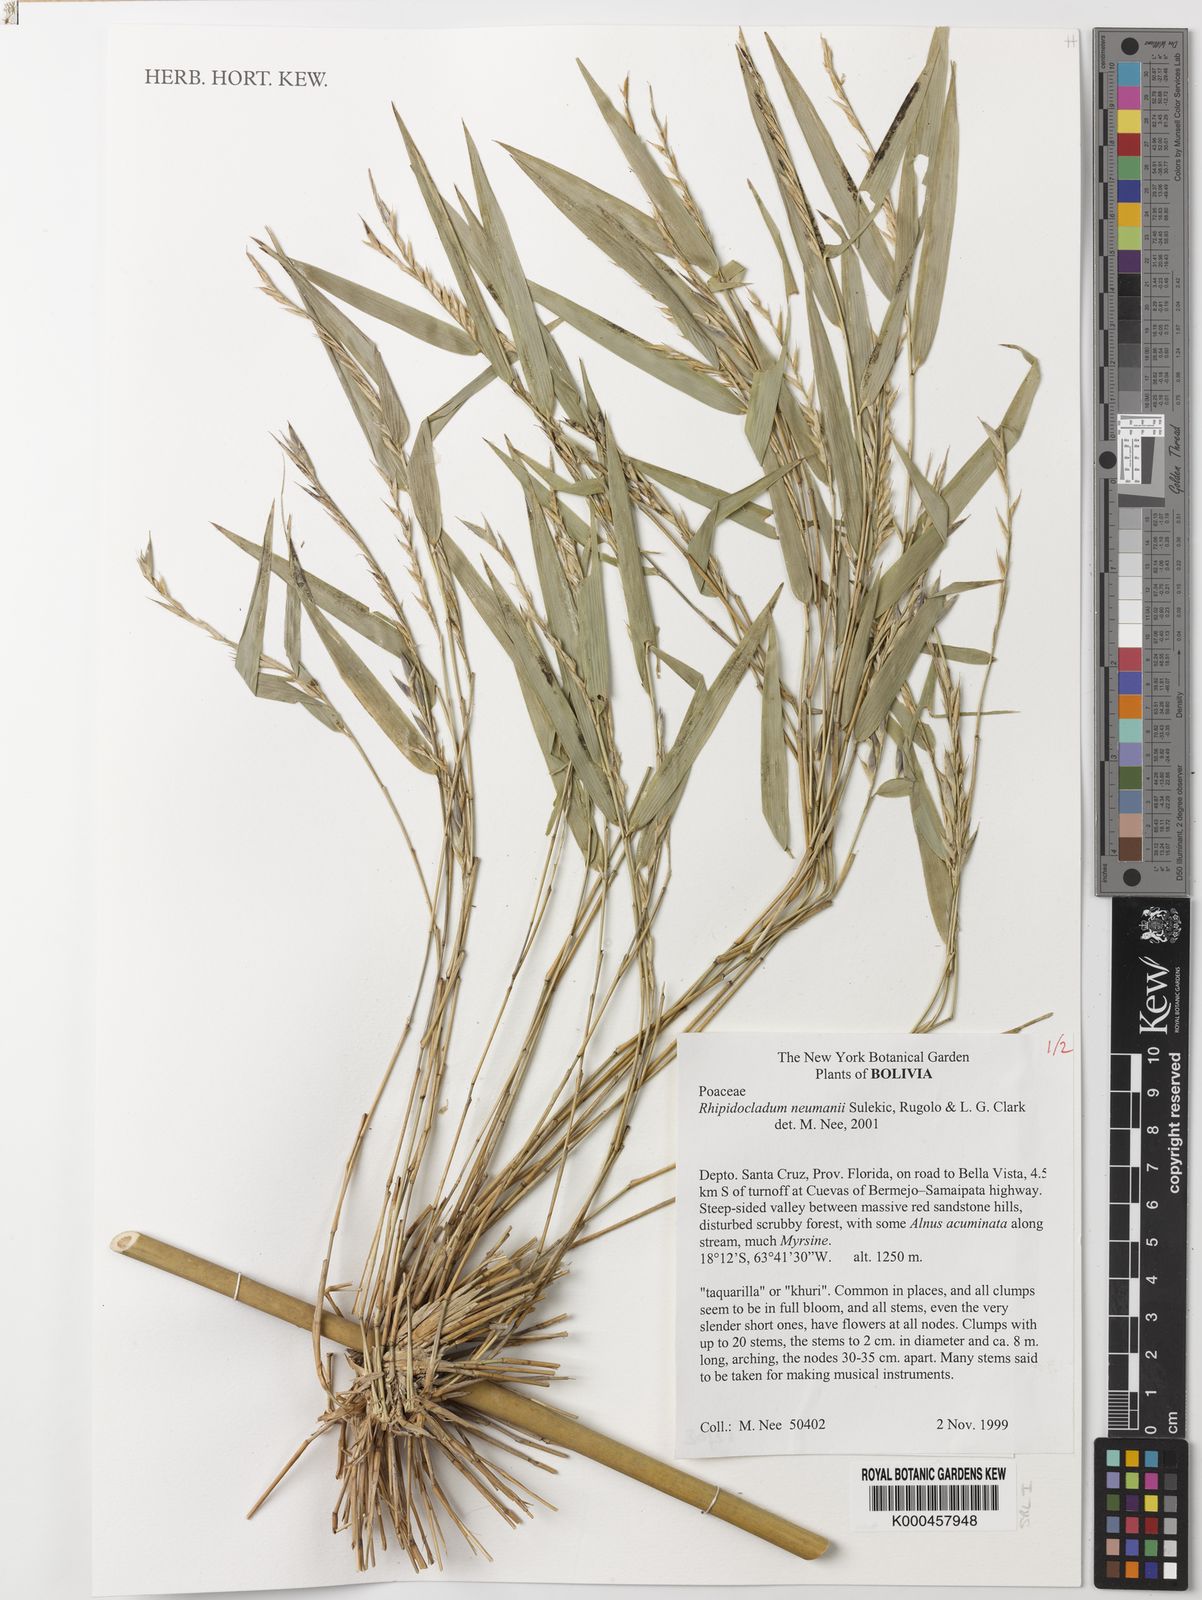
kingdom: Plantae
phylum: Tracheophyta
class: Liliopsida
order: Poales
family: Poaceae
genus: Rhipidocladum
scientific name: Rhipidocladum
